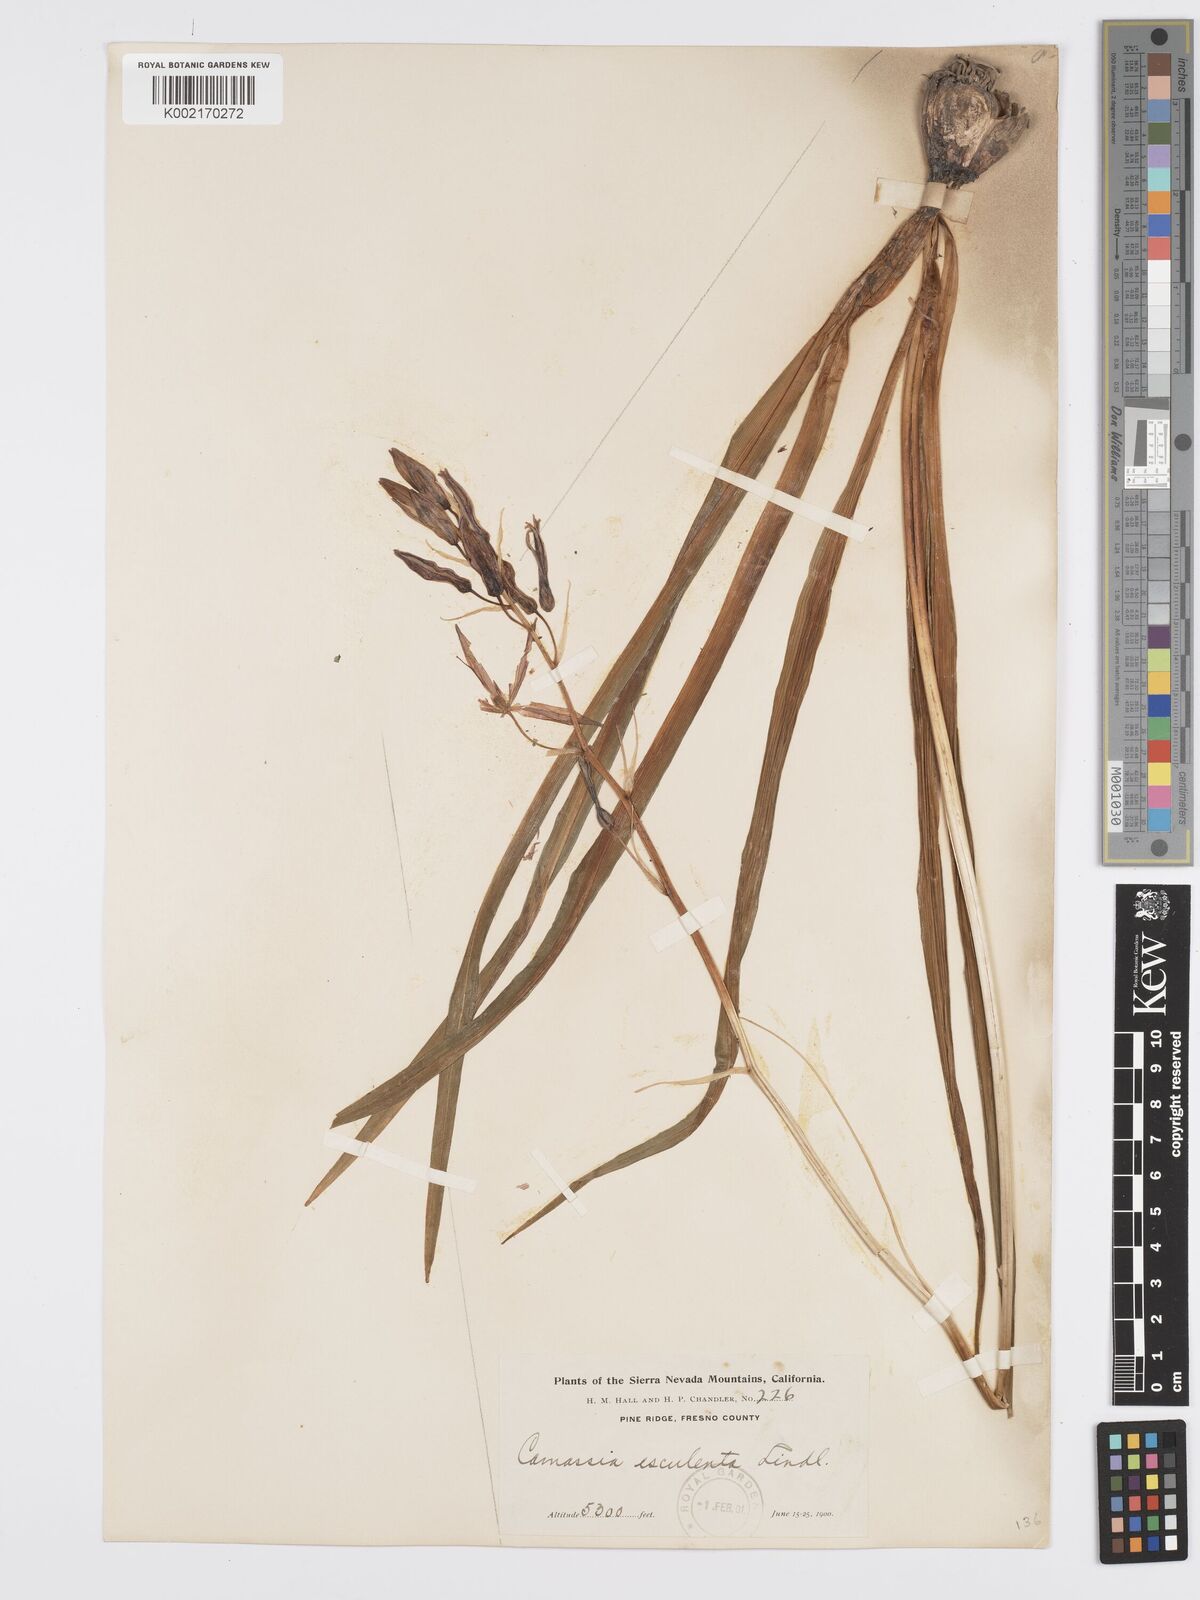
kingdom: Plantae
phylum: Tracheophyta
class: Liliopsida
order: Asparagales
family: Asparagaceae
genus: Camassia
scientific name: Camassia leichtlinii
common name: Leichtlin's camas
